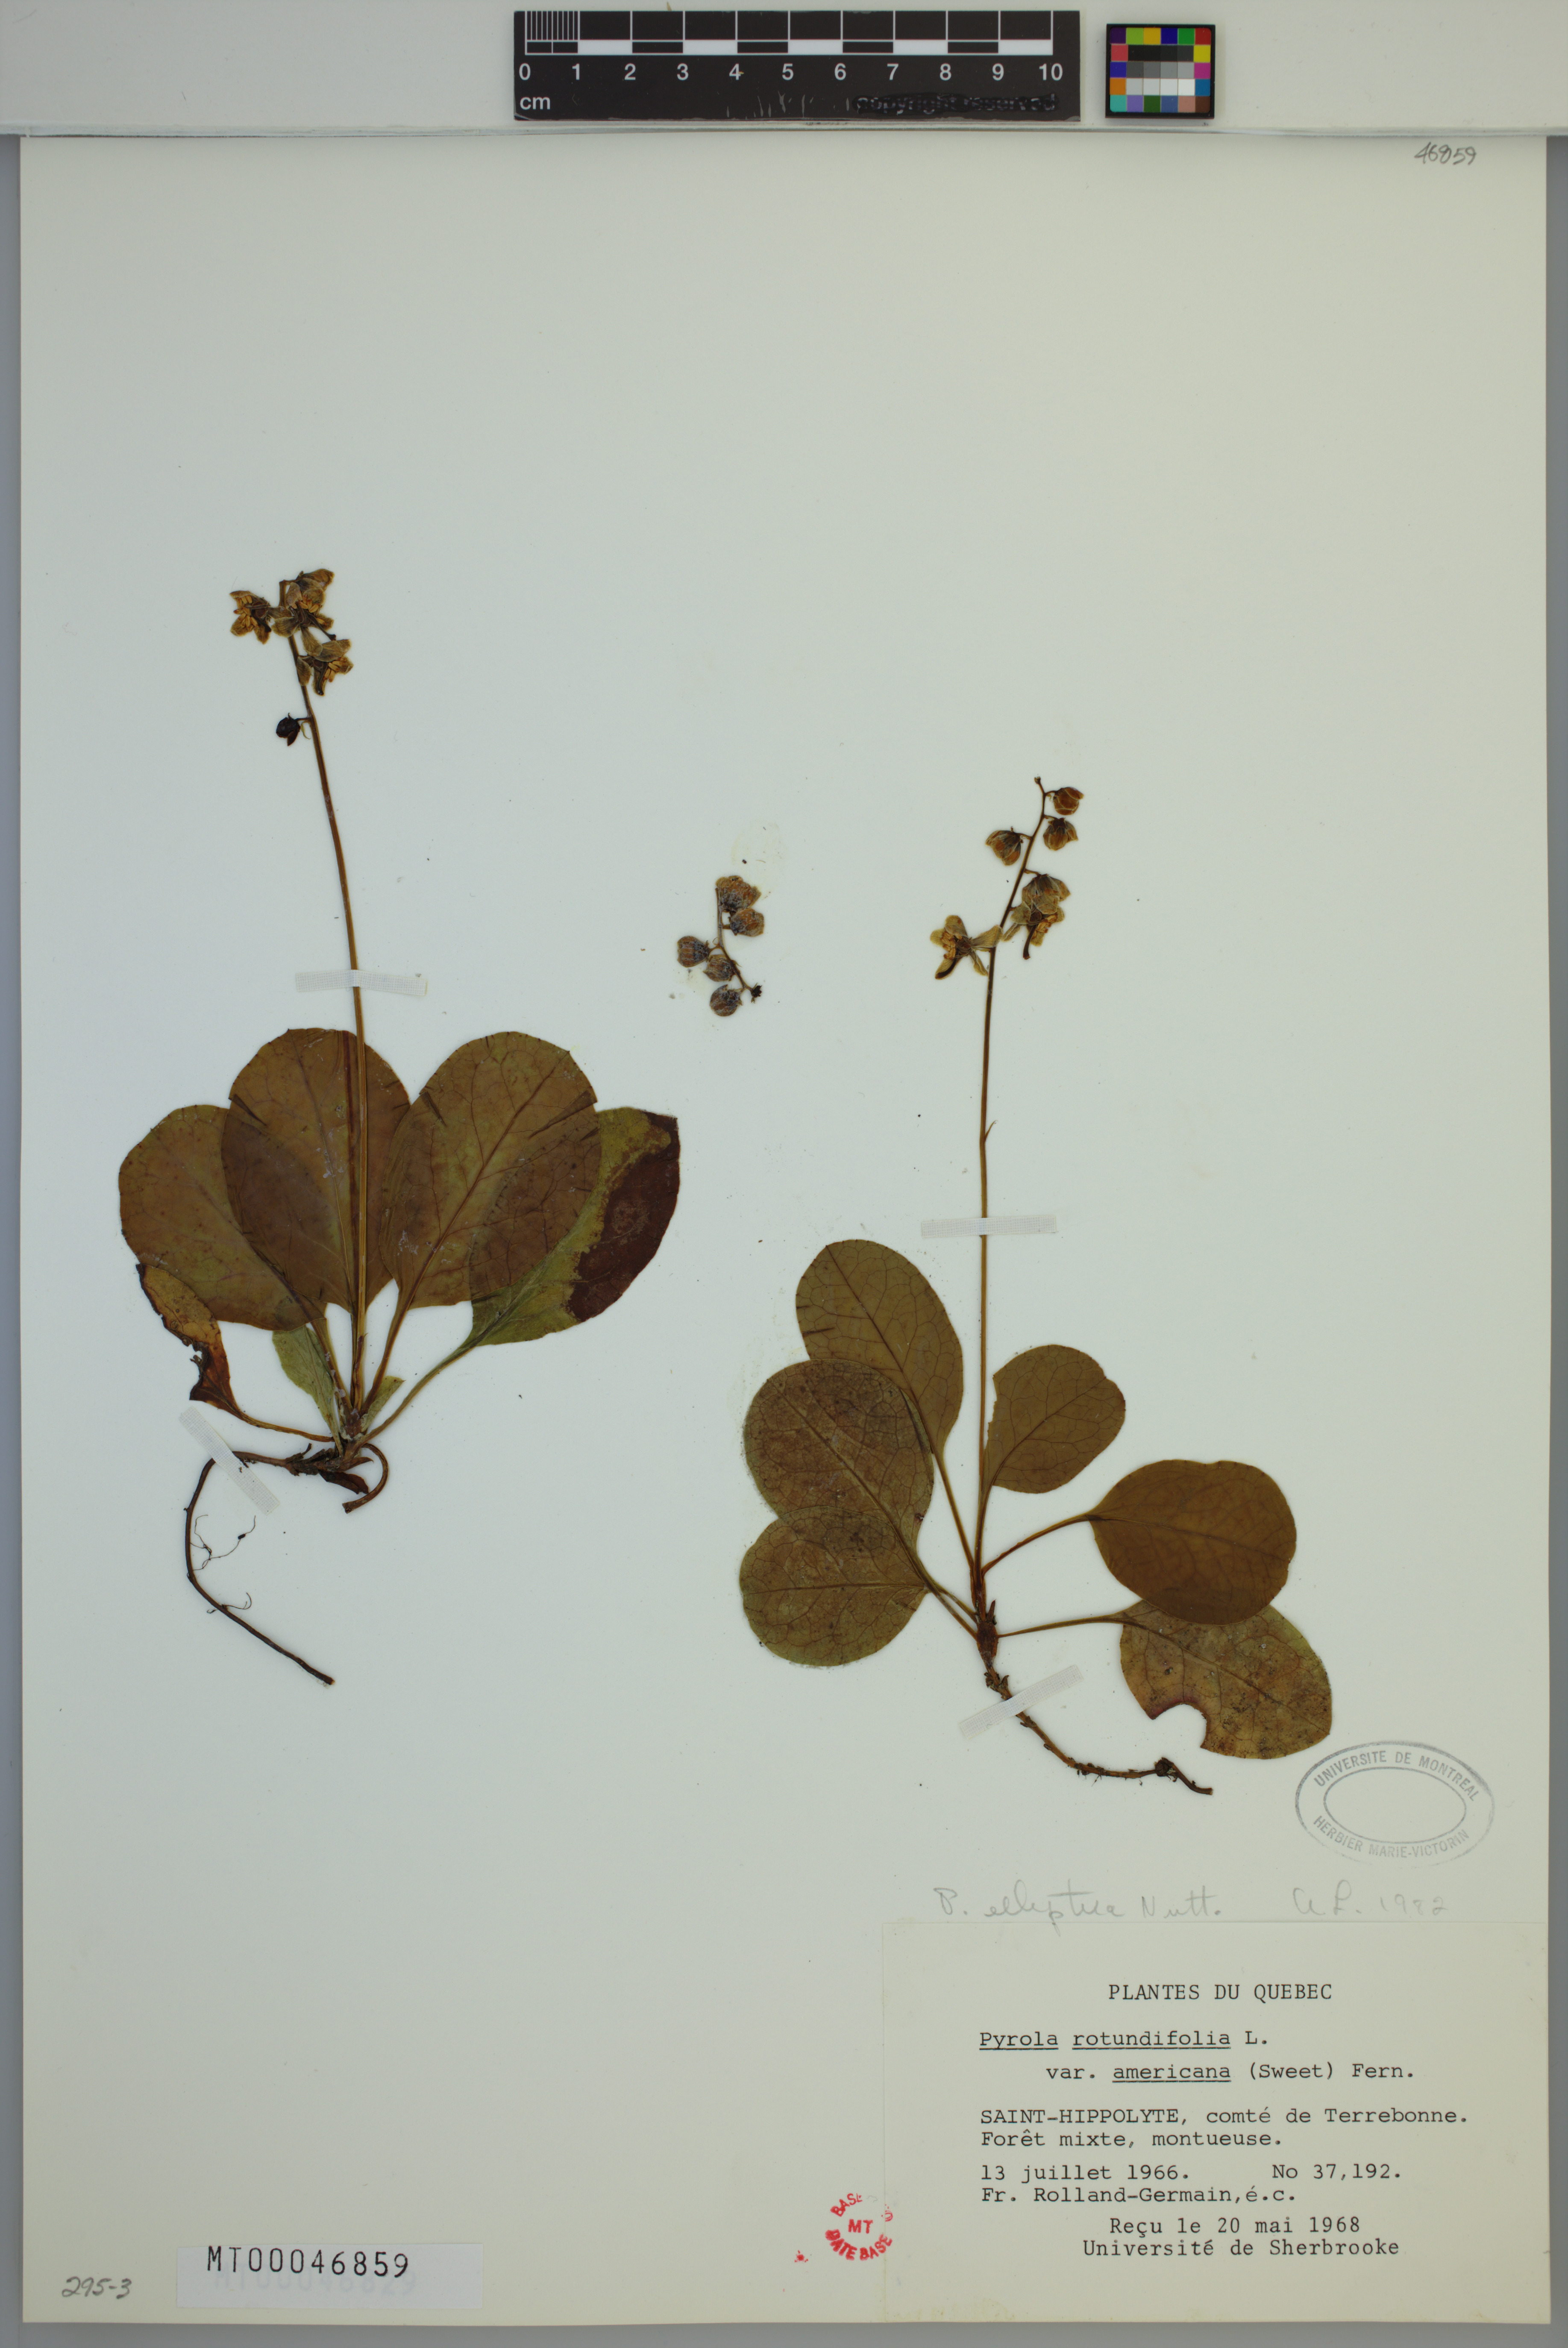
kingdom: Plantae
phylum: Tracheophyta
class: Magnoliopsida
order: Ericales
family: Ericaceae
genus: Pyrola
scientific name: Pyrola elliptica
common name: Shinleaf
